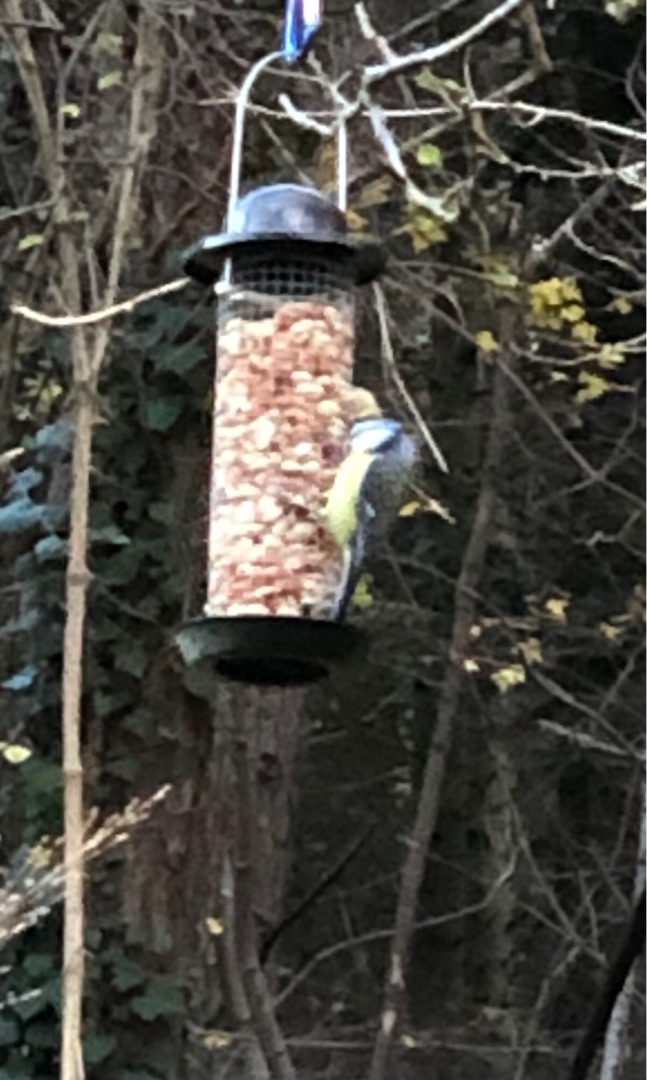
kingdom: Animalia
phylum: Chordata
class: Aves
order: Passeriformes
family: Paridae
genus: Cyanistes
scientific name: Cyanistes caeruleus
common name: Blåmejse
